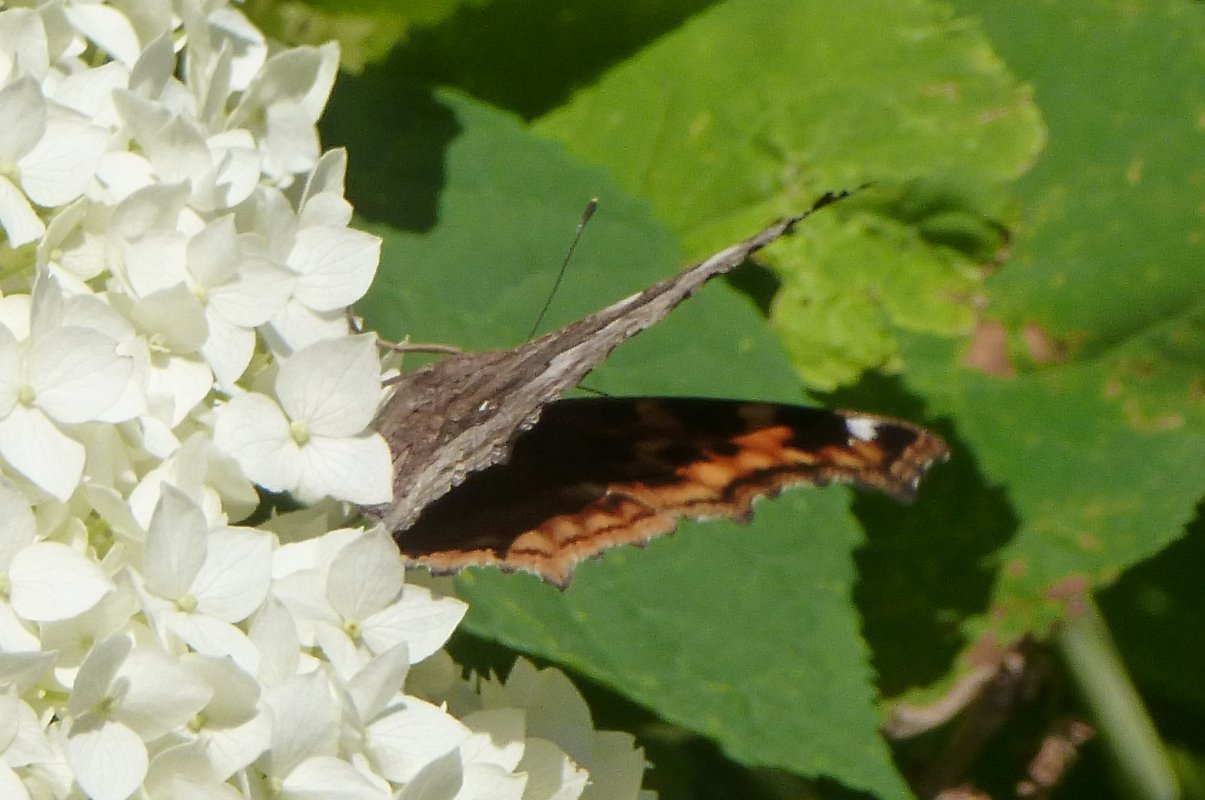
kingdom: Animalia
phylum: Arthropoda
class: Insecta
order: Lepidoptera
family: Nymphalidae
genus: Polygonia
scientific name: Polygonia vaualbum
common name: Compton Tortoiseshell
